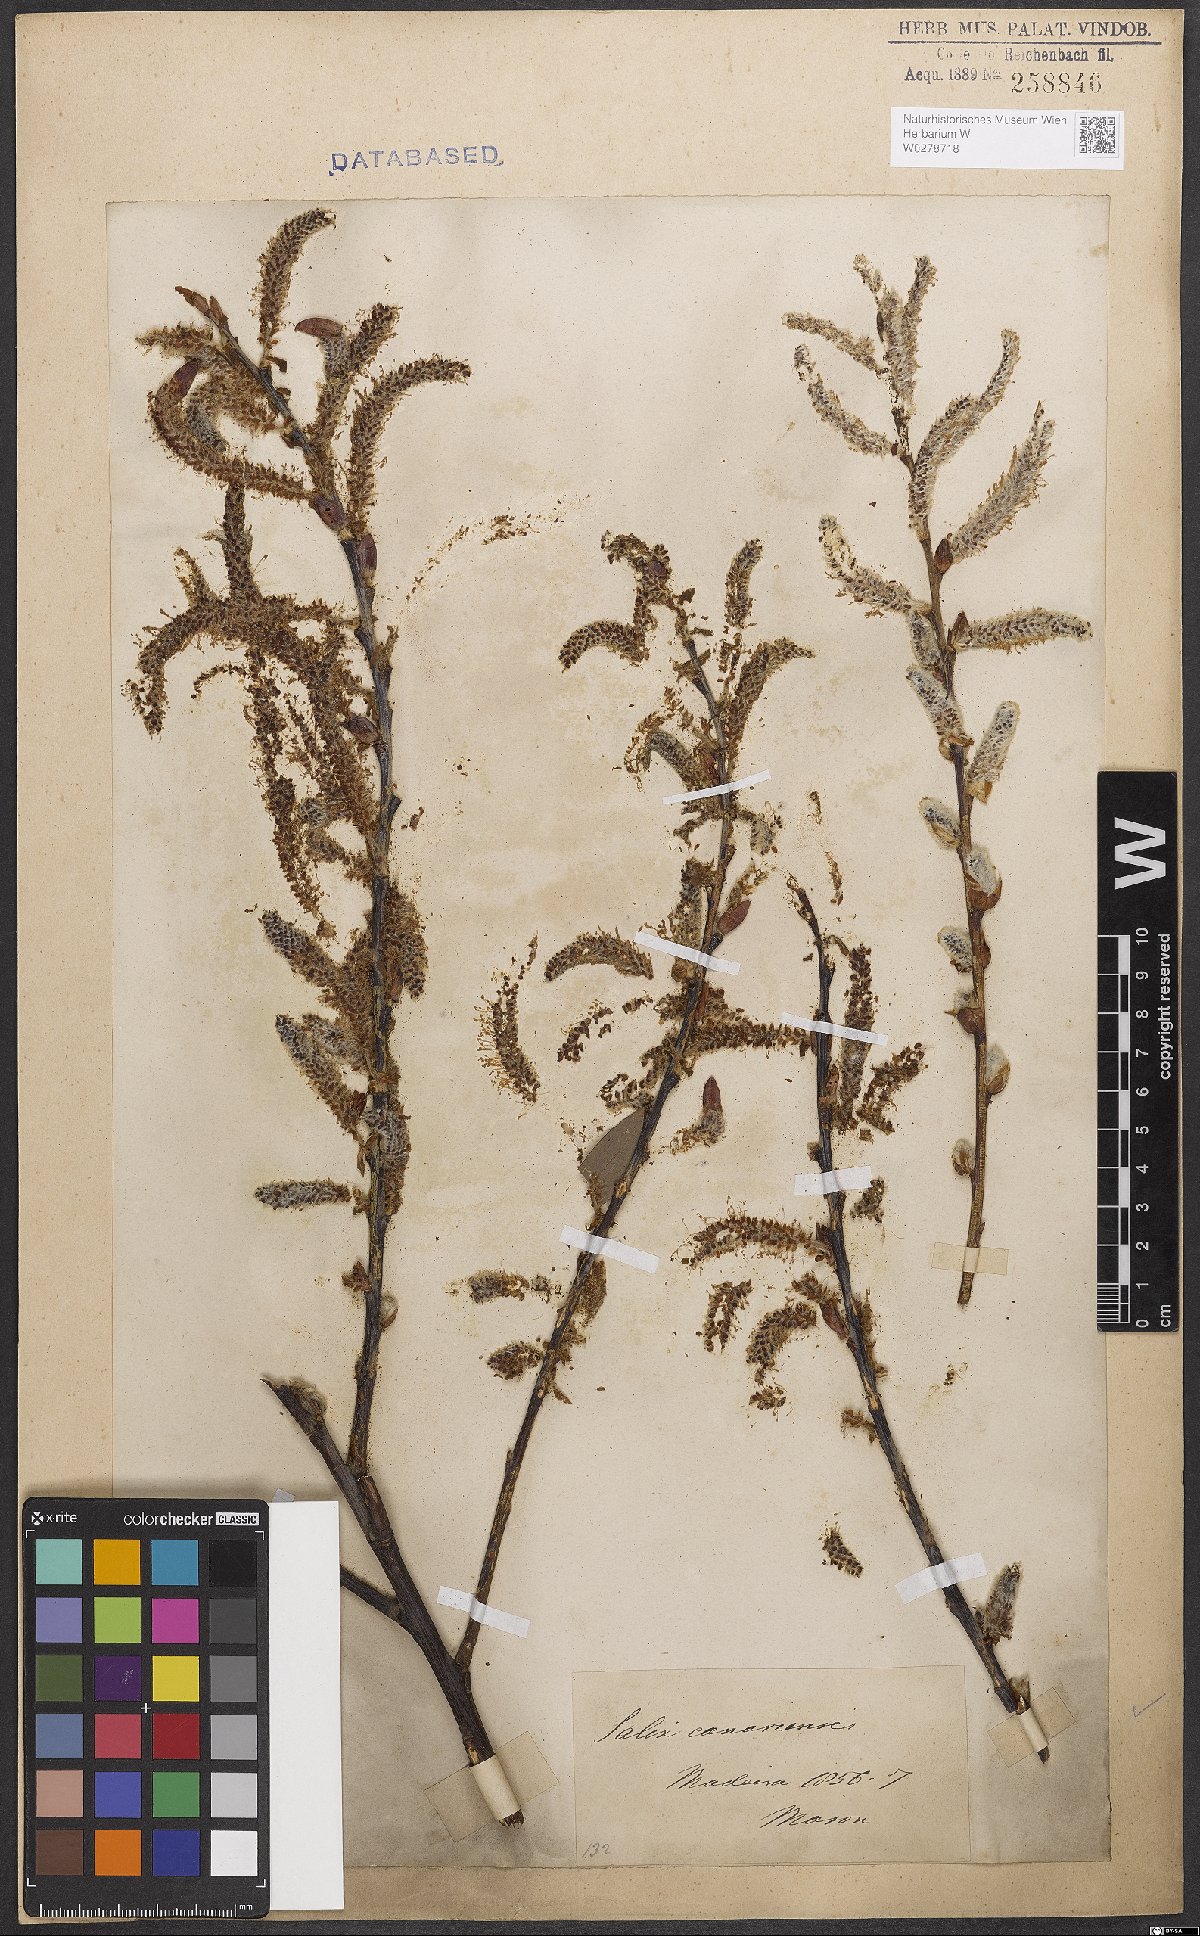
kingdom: Plantae
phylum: Tracheophyta
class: Magnoliopsida
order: Malpighiales
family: Salicaceae
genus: Salix
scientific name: Salix canariensis
